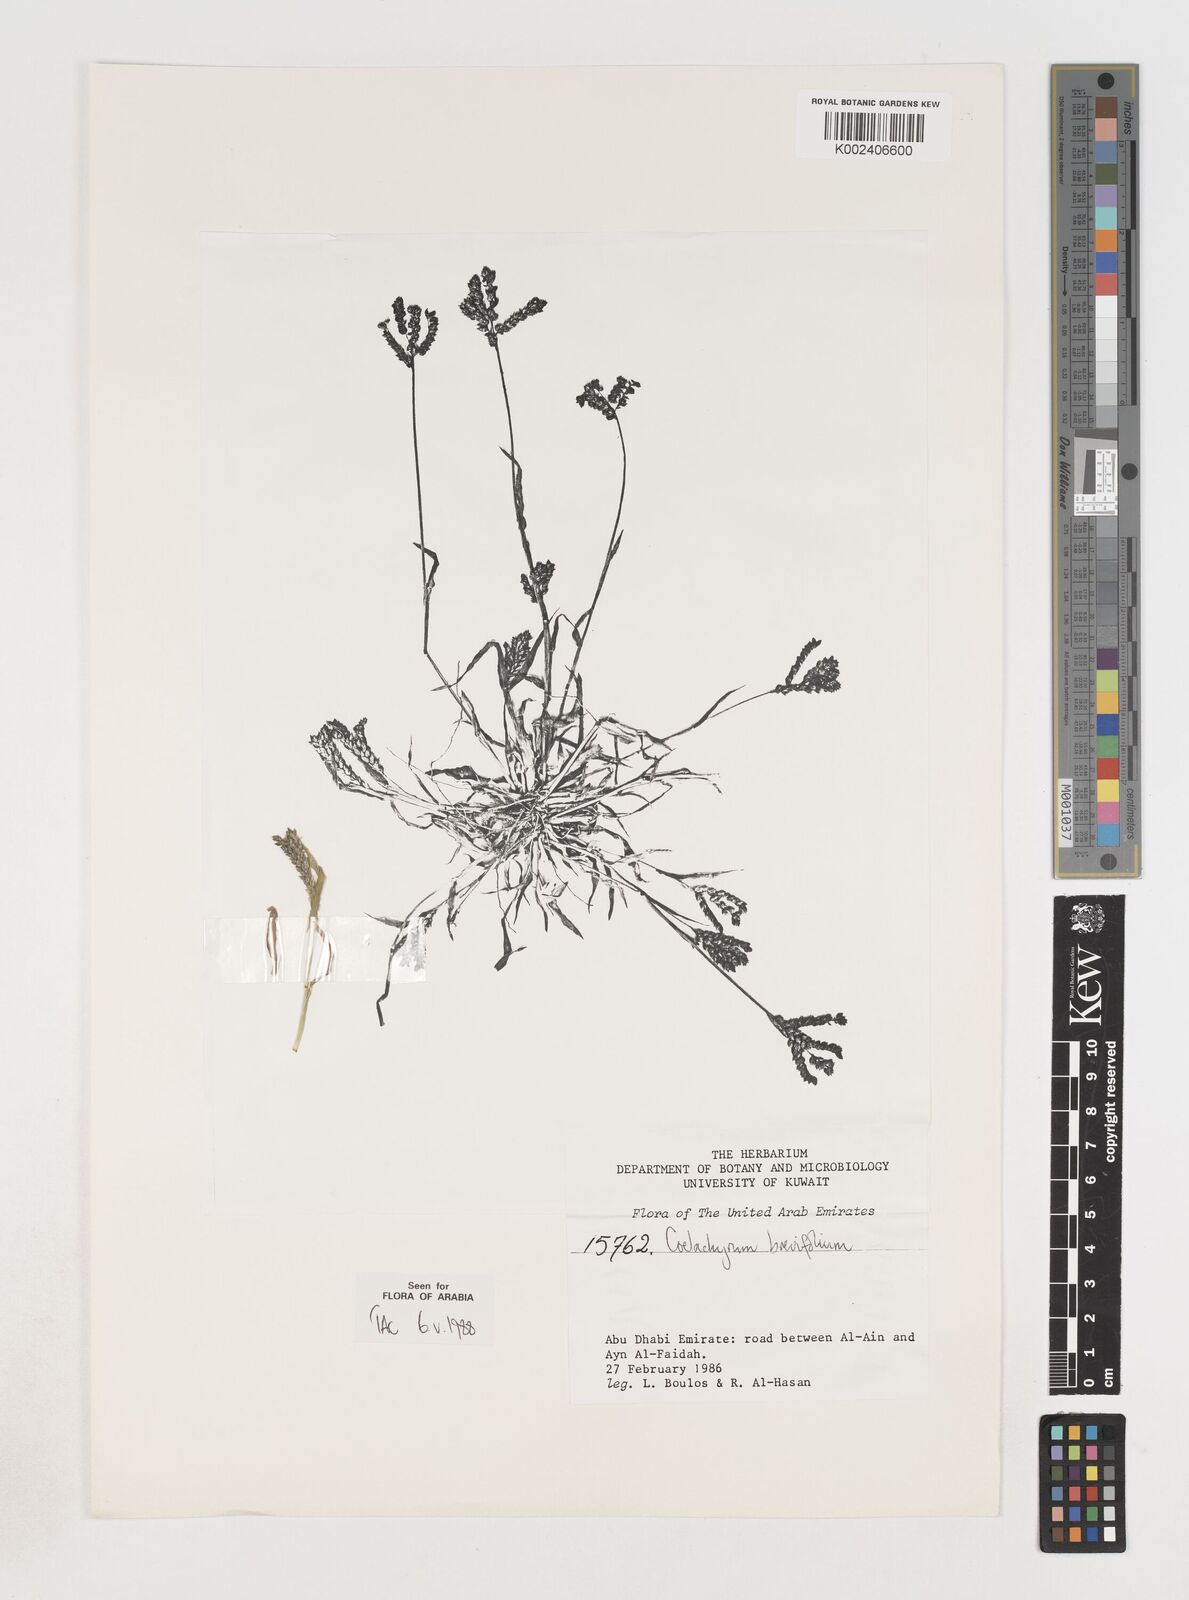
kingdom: Plantae
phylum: Tracheophyta
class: Liliopsida
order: Poales
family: Poaceae
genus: Coelachyrum
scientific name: Coelachyrum brevifolium
